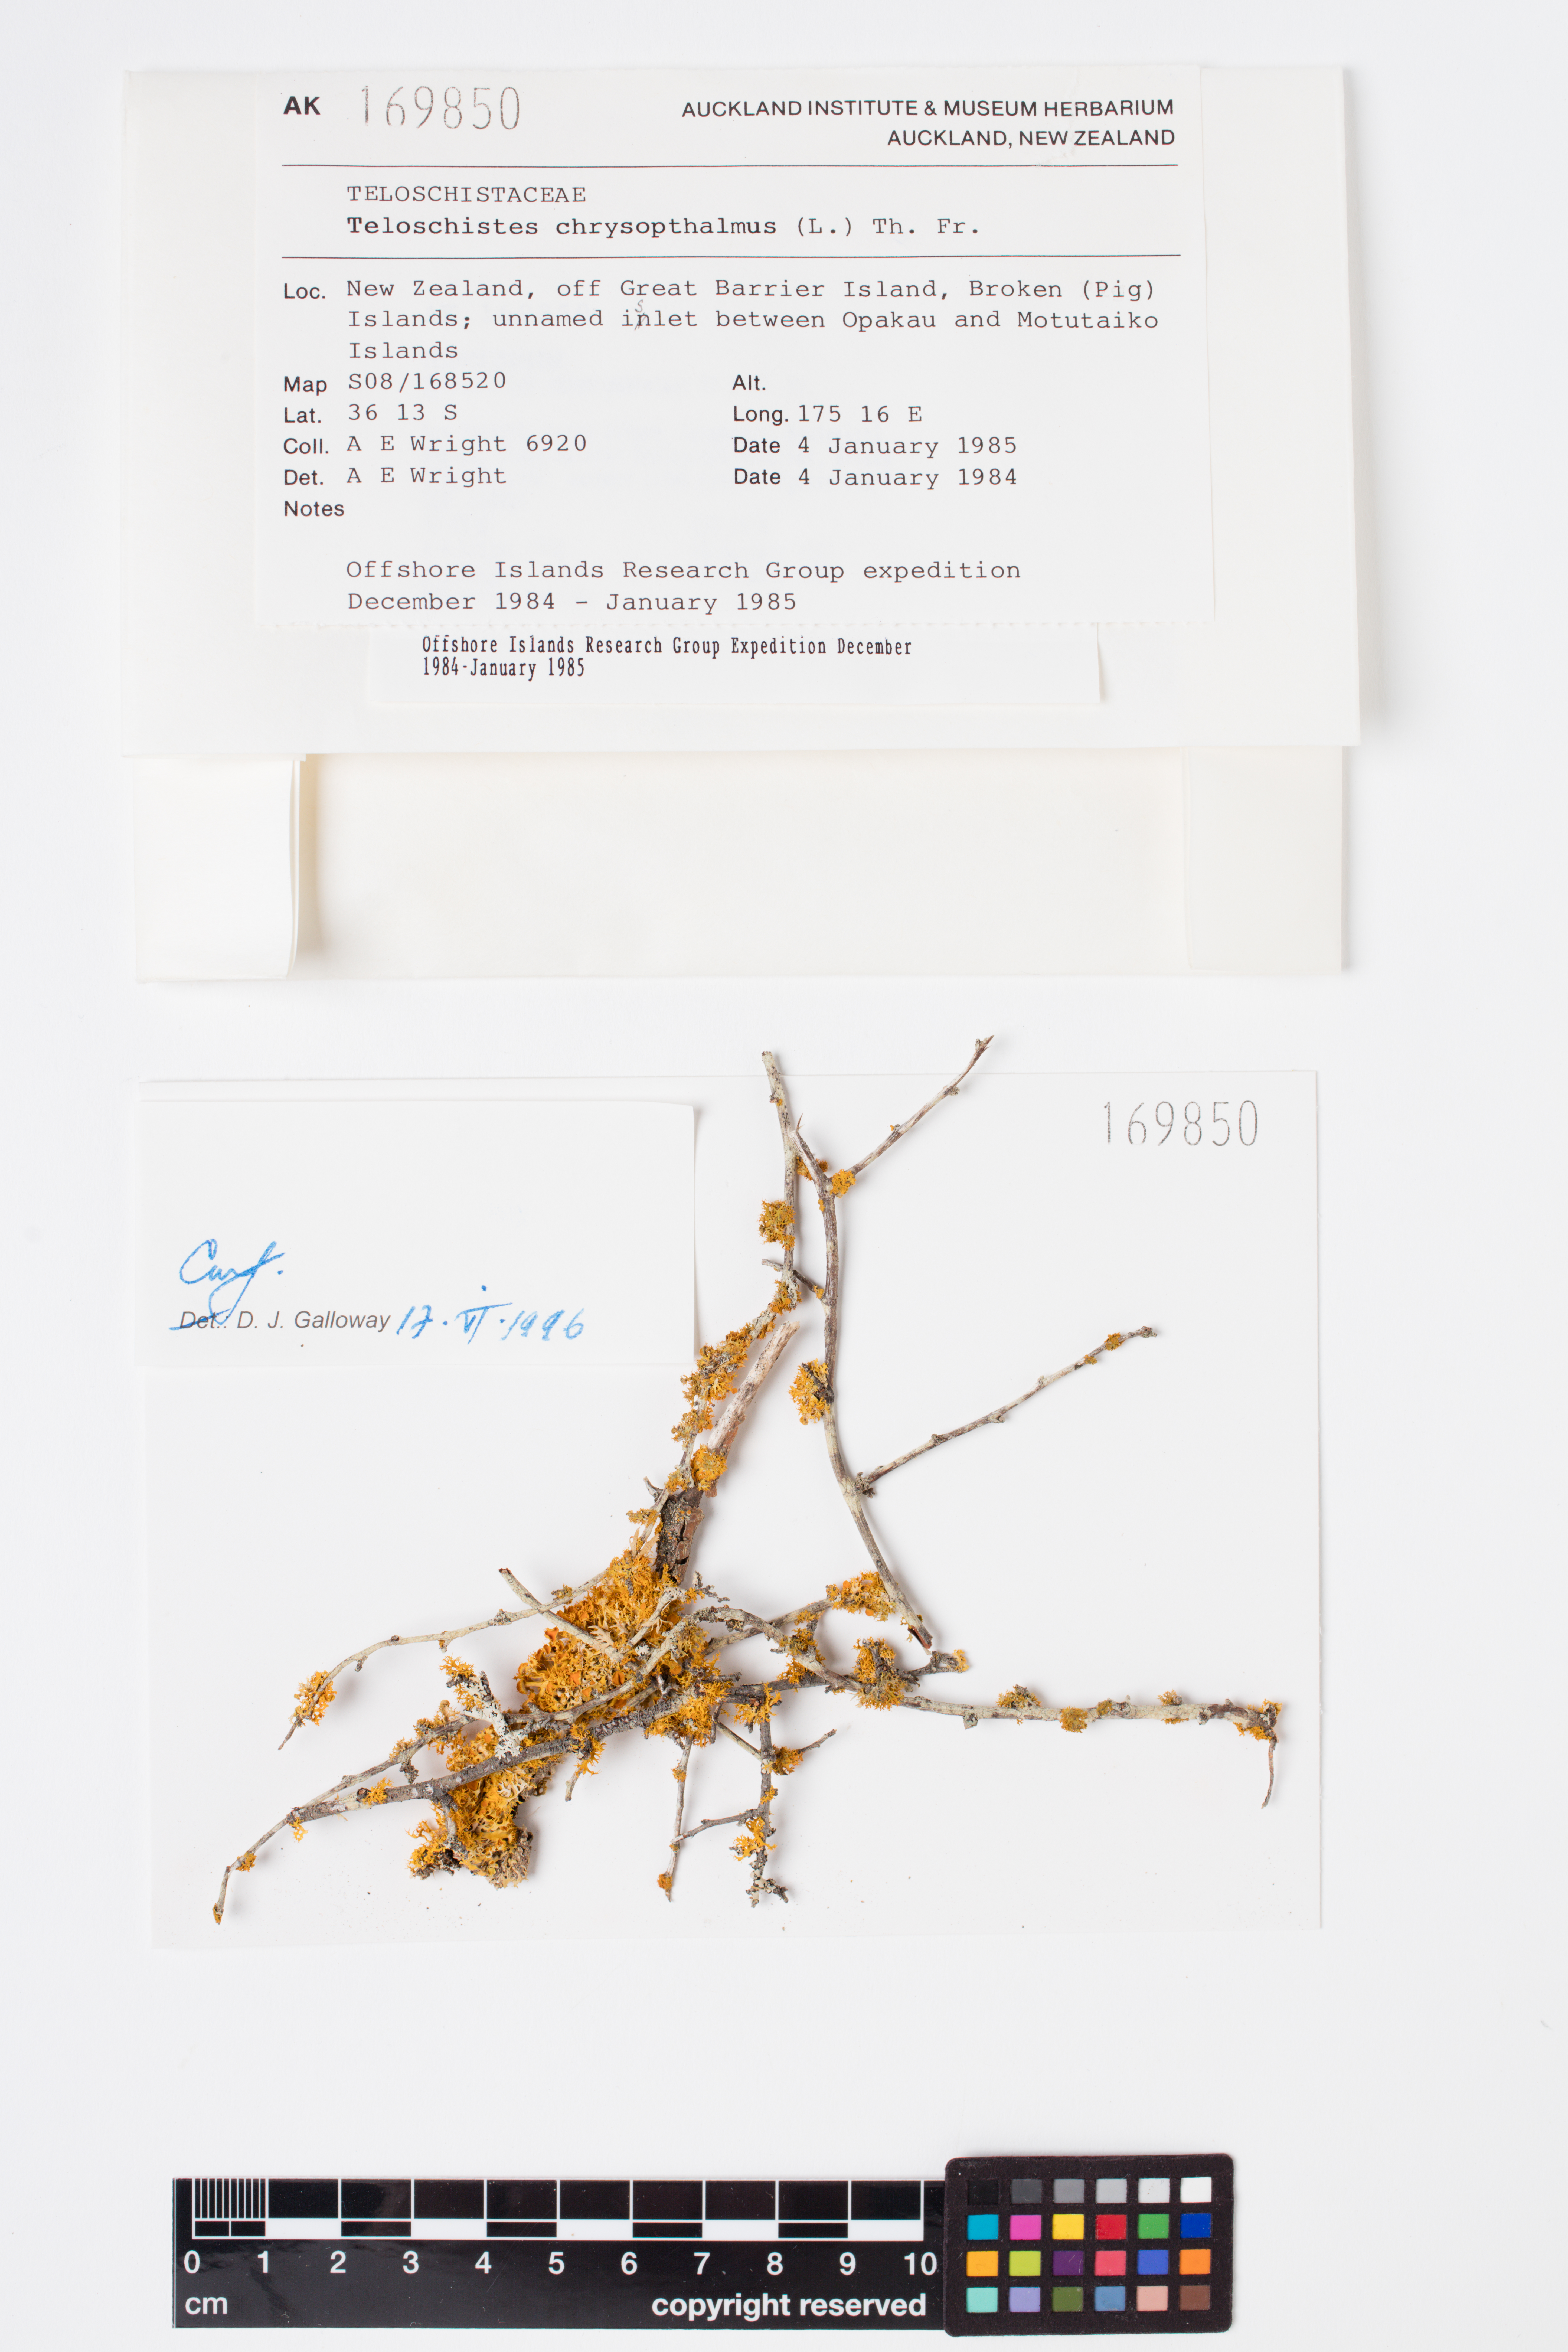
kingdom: Fungi
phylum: Ascomycota
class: Lecanoromycetes
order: Teloschistales
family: Teloschistaceae
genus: Niorma
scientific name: Niorma chrysophthalma
